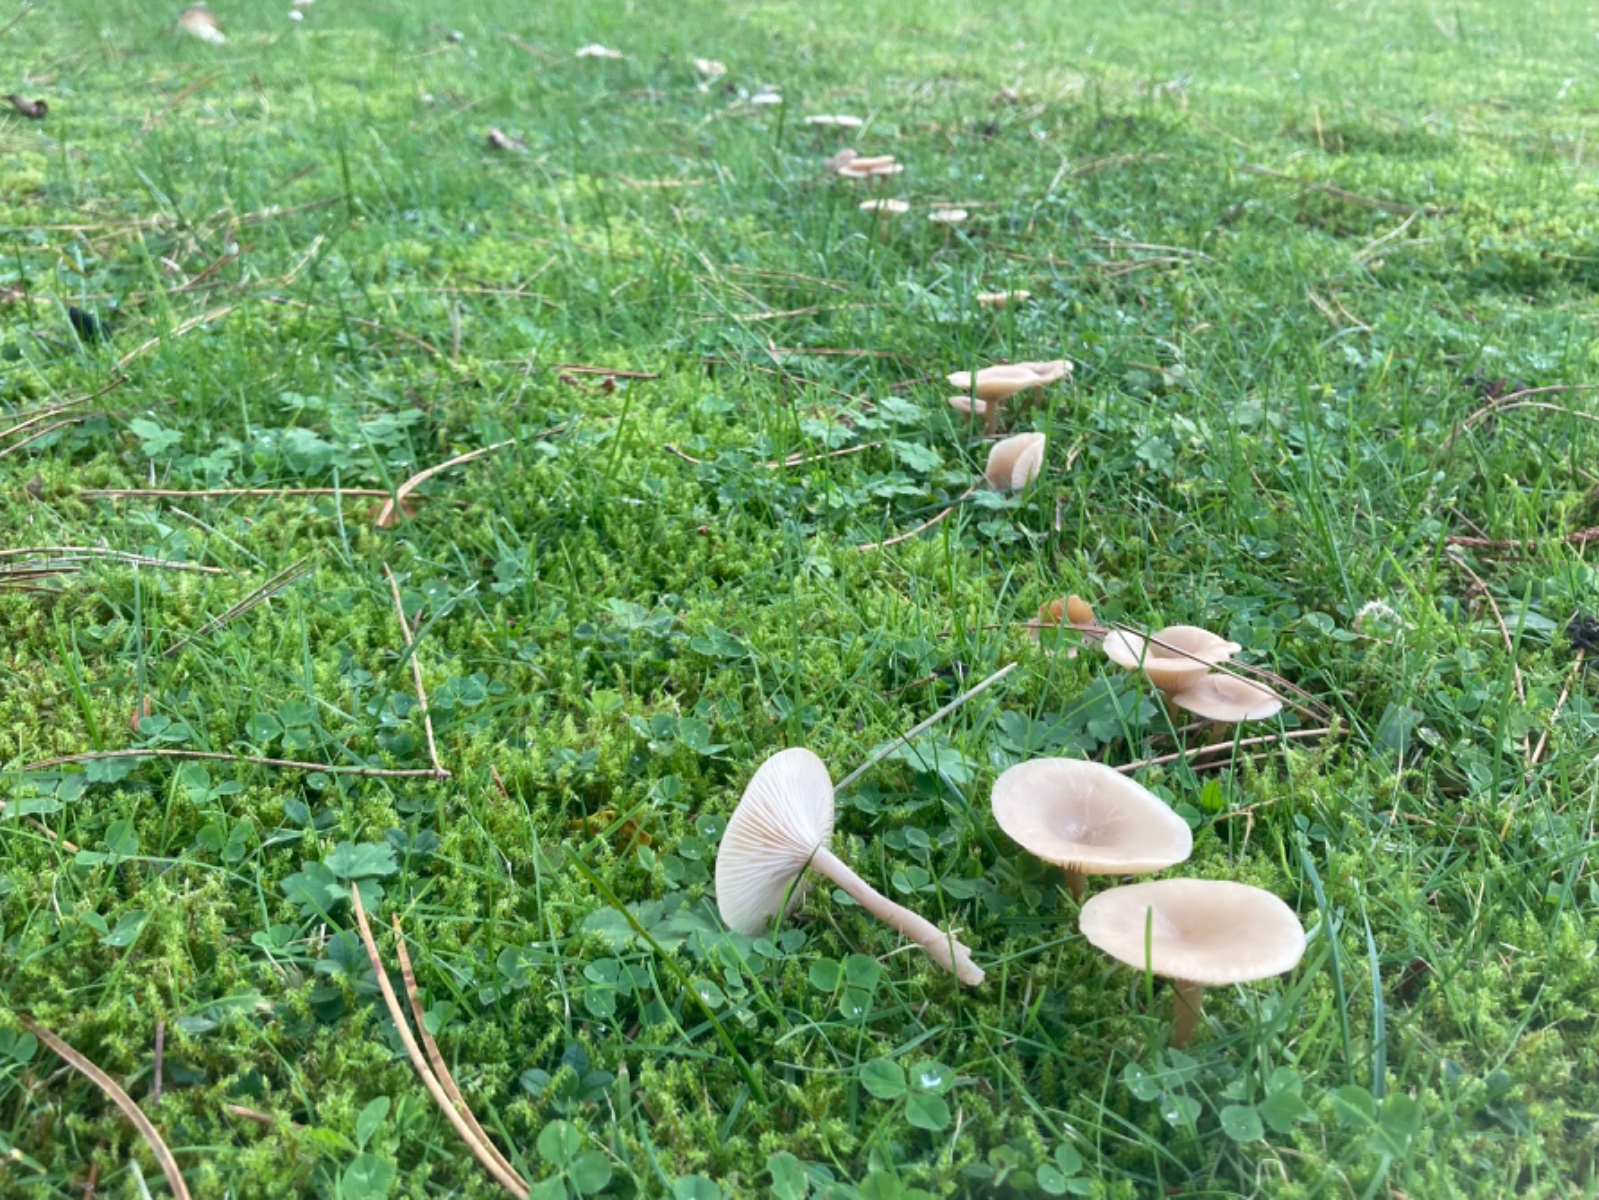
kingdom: Fungi
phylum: Basidiomycota
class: Agaricomycetes
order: Agaricales
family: Tricholomataceae
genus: Clitocybe
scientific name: Clitocybe fragrans
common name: vellugtende tragthat
